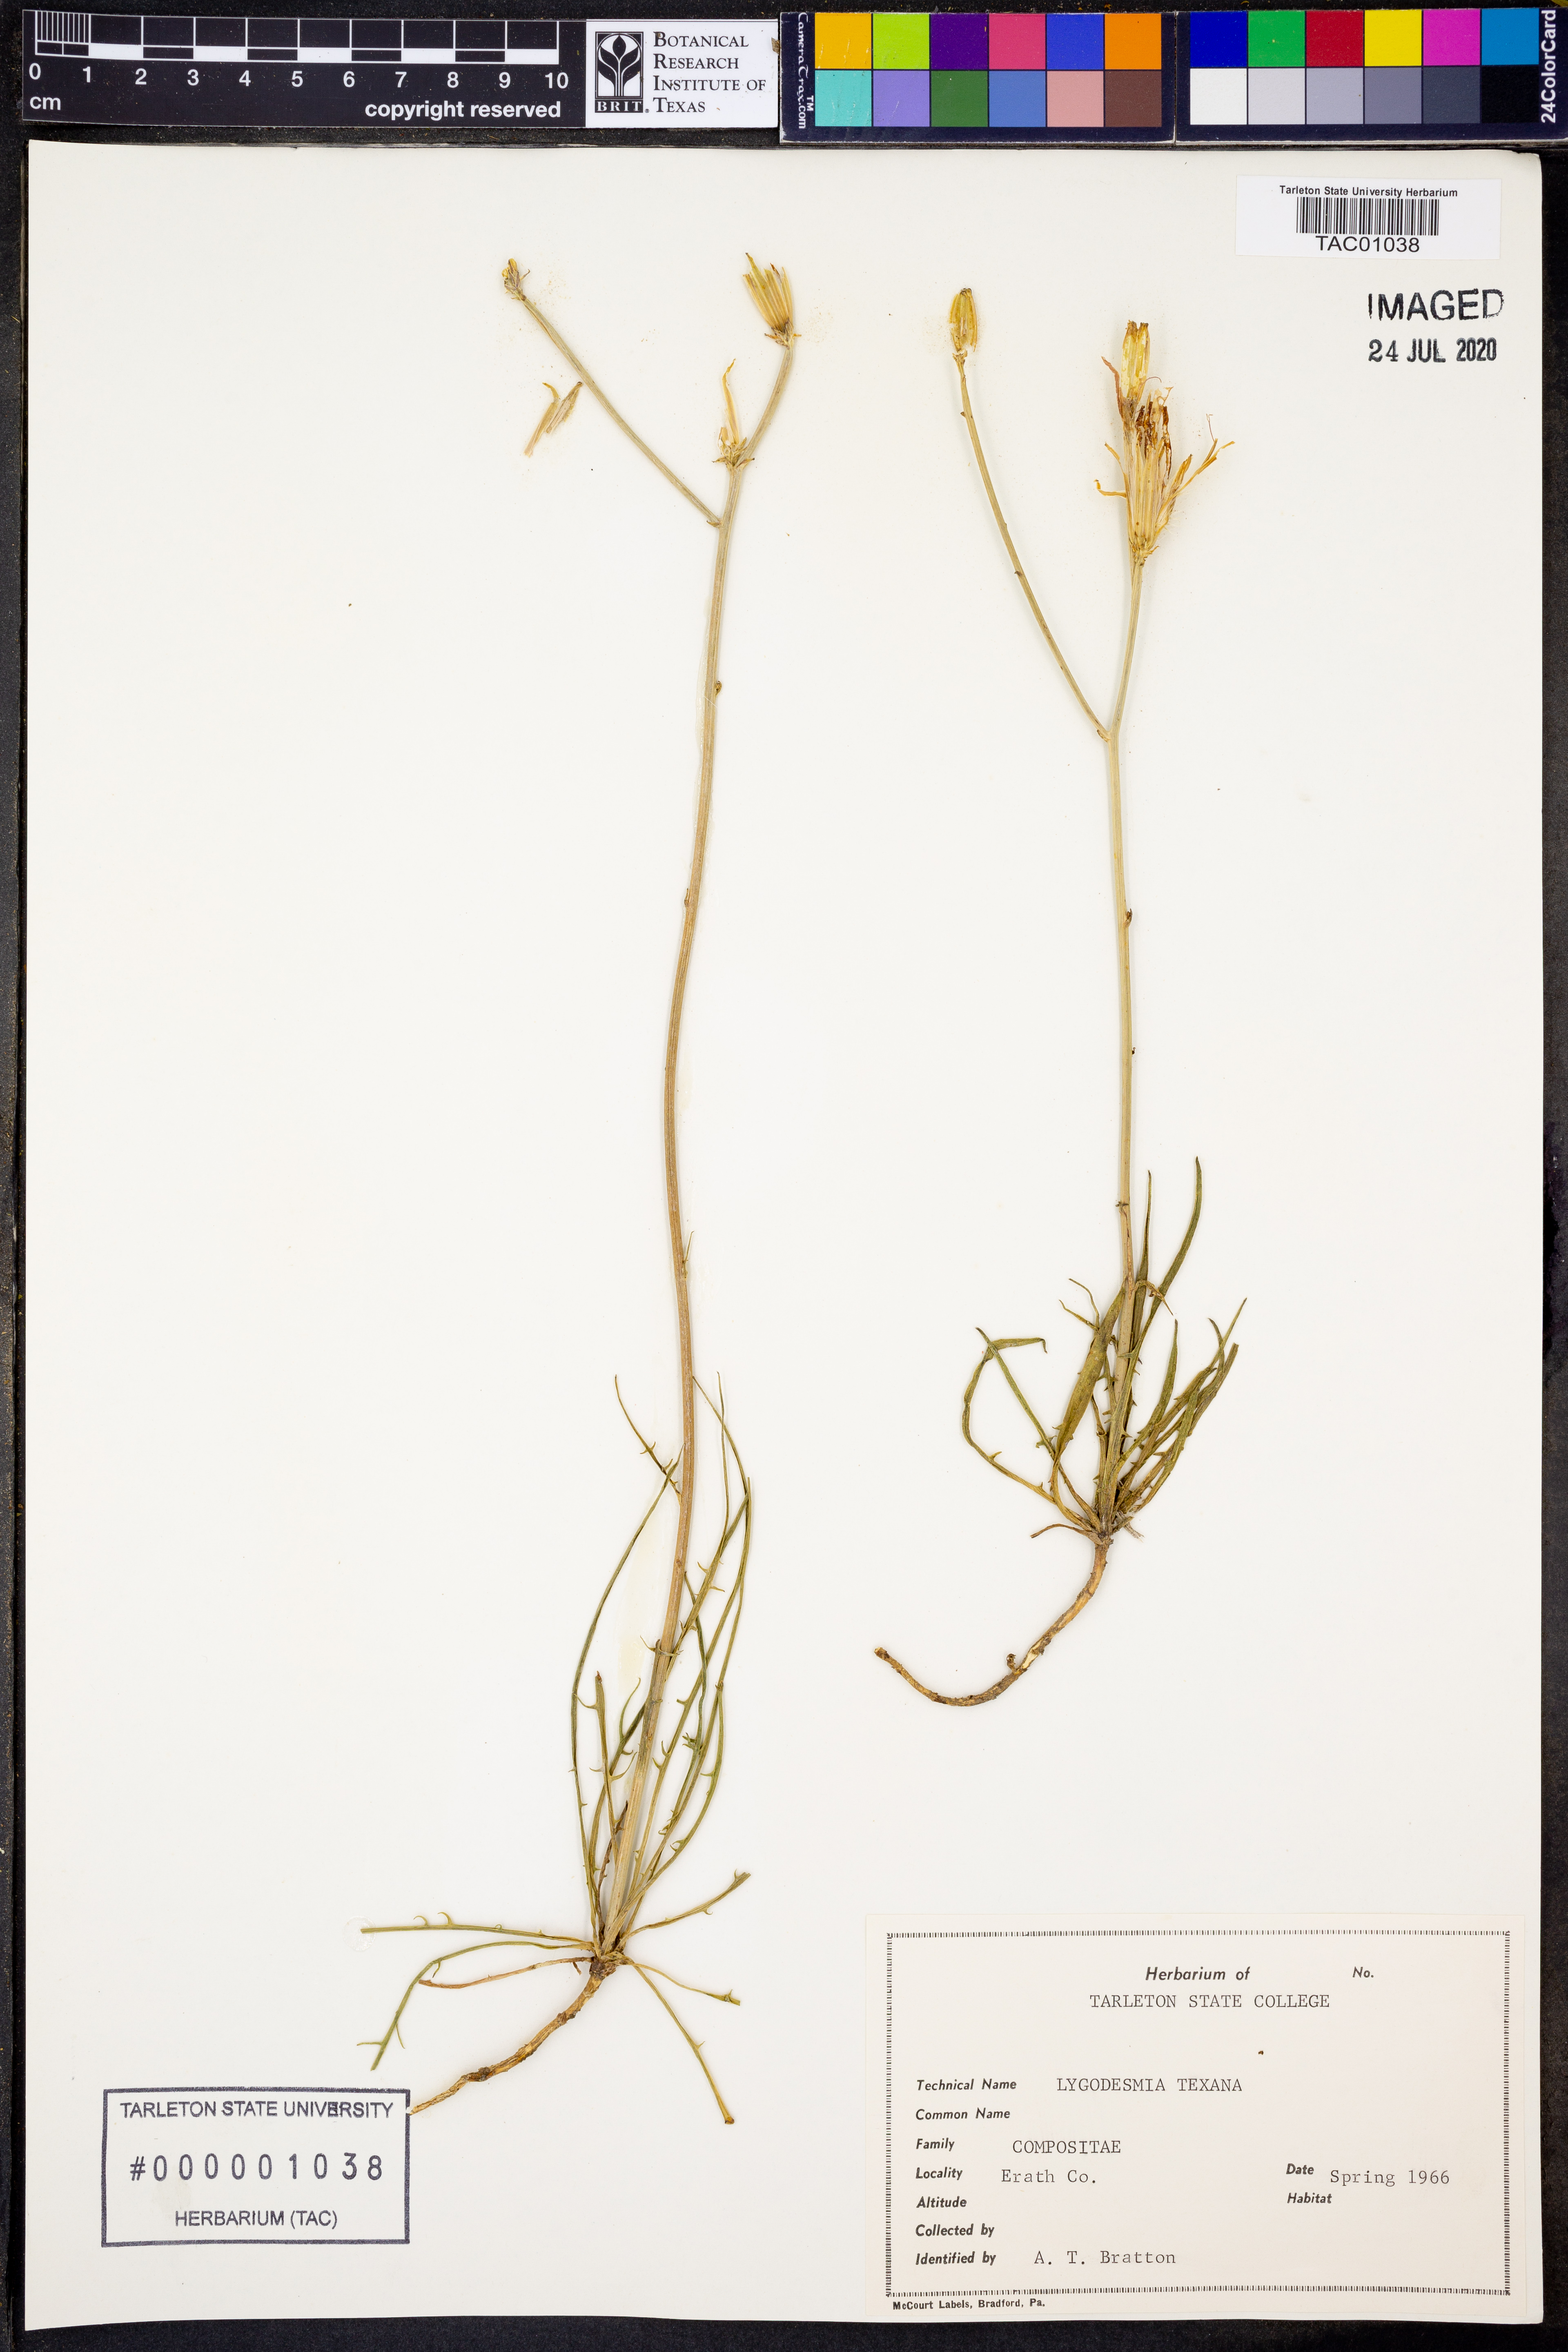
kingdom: Plantae
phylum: Tracheophyta
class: Magnoliopsida
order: Asterales
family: Asteraceae
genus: Lygodesmia
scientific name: Lygodesmia texana
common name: Texas skeleton-plant
